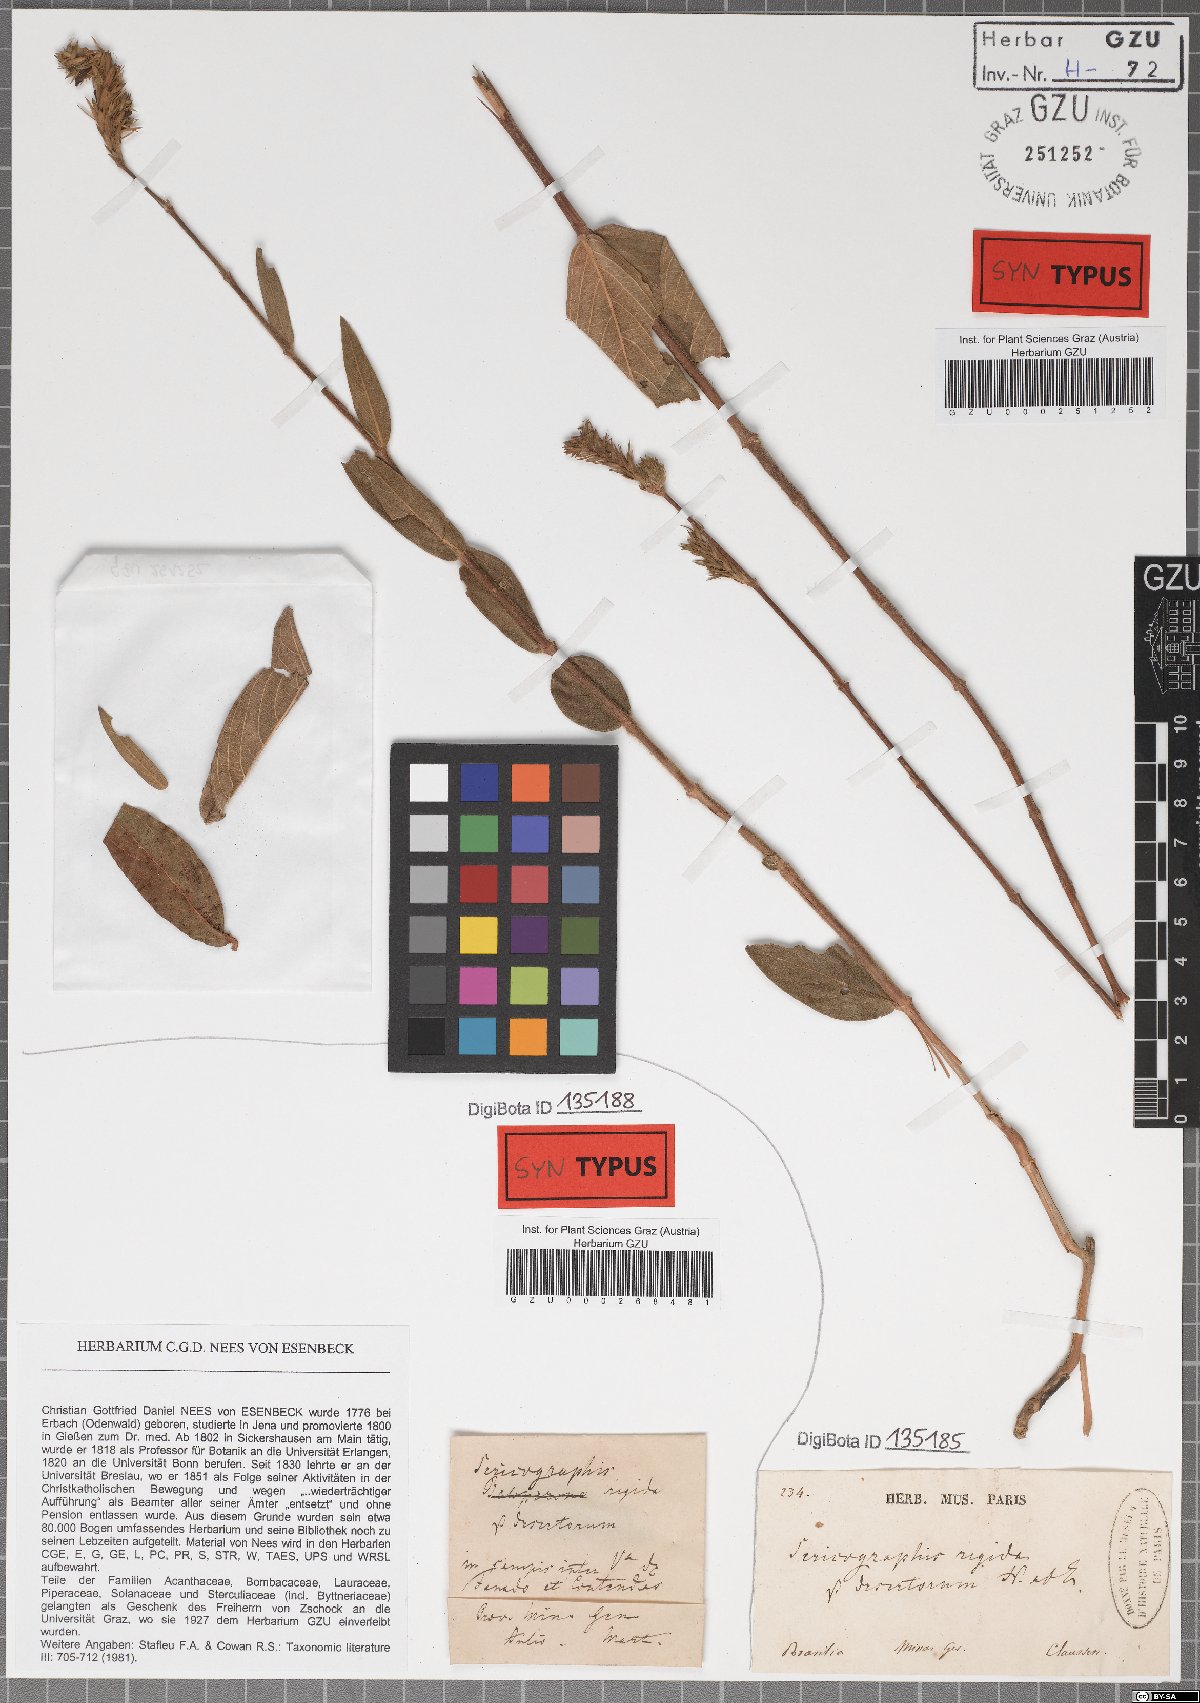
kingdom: Plantae
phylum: Tracheophyta
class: Magnoliopsida
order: Lamiales
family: Acanthaceae
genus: Dianthera
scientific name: Dianthera rigida
